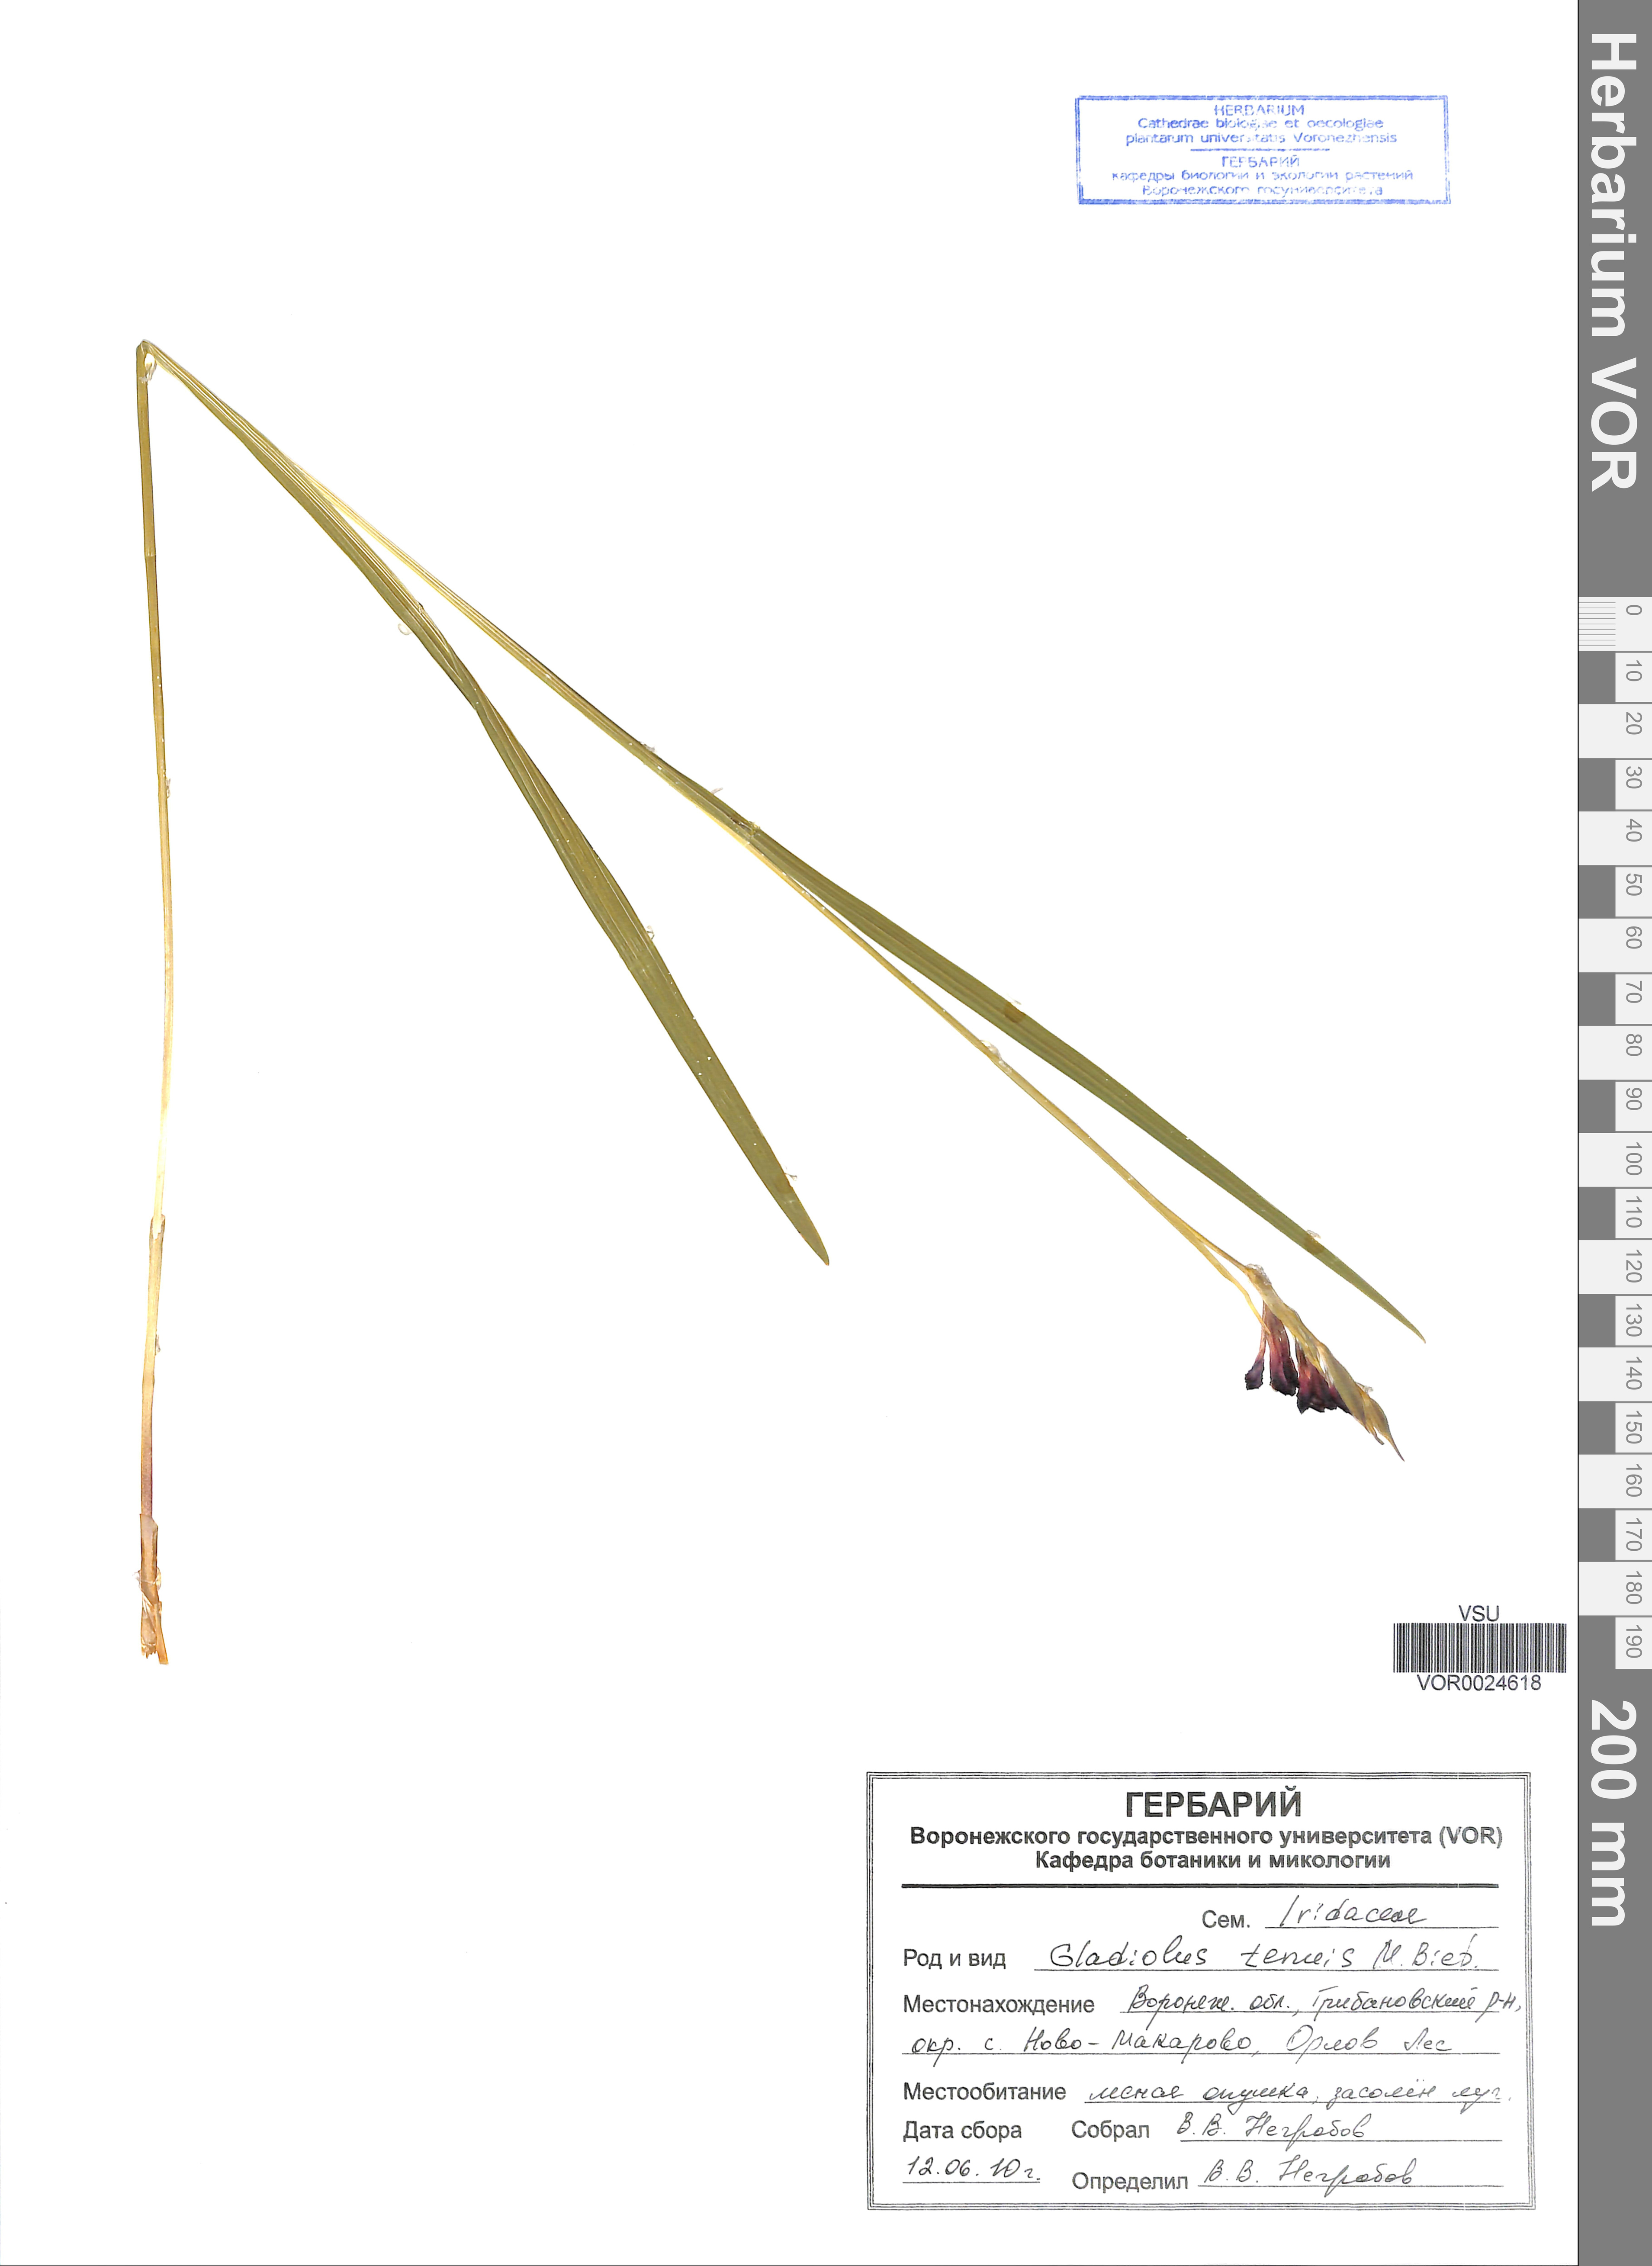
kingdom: Plantae
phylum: Tracheophyta
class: Liliopsida
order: Asparagales
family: Iridaceae
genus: Gladiolus
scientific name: Gladiolus tenuis
